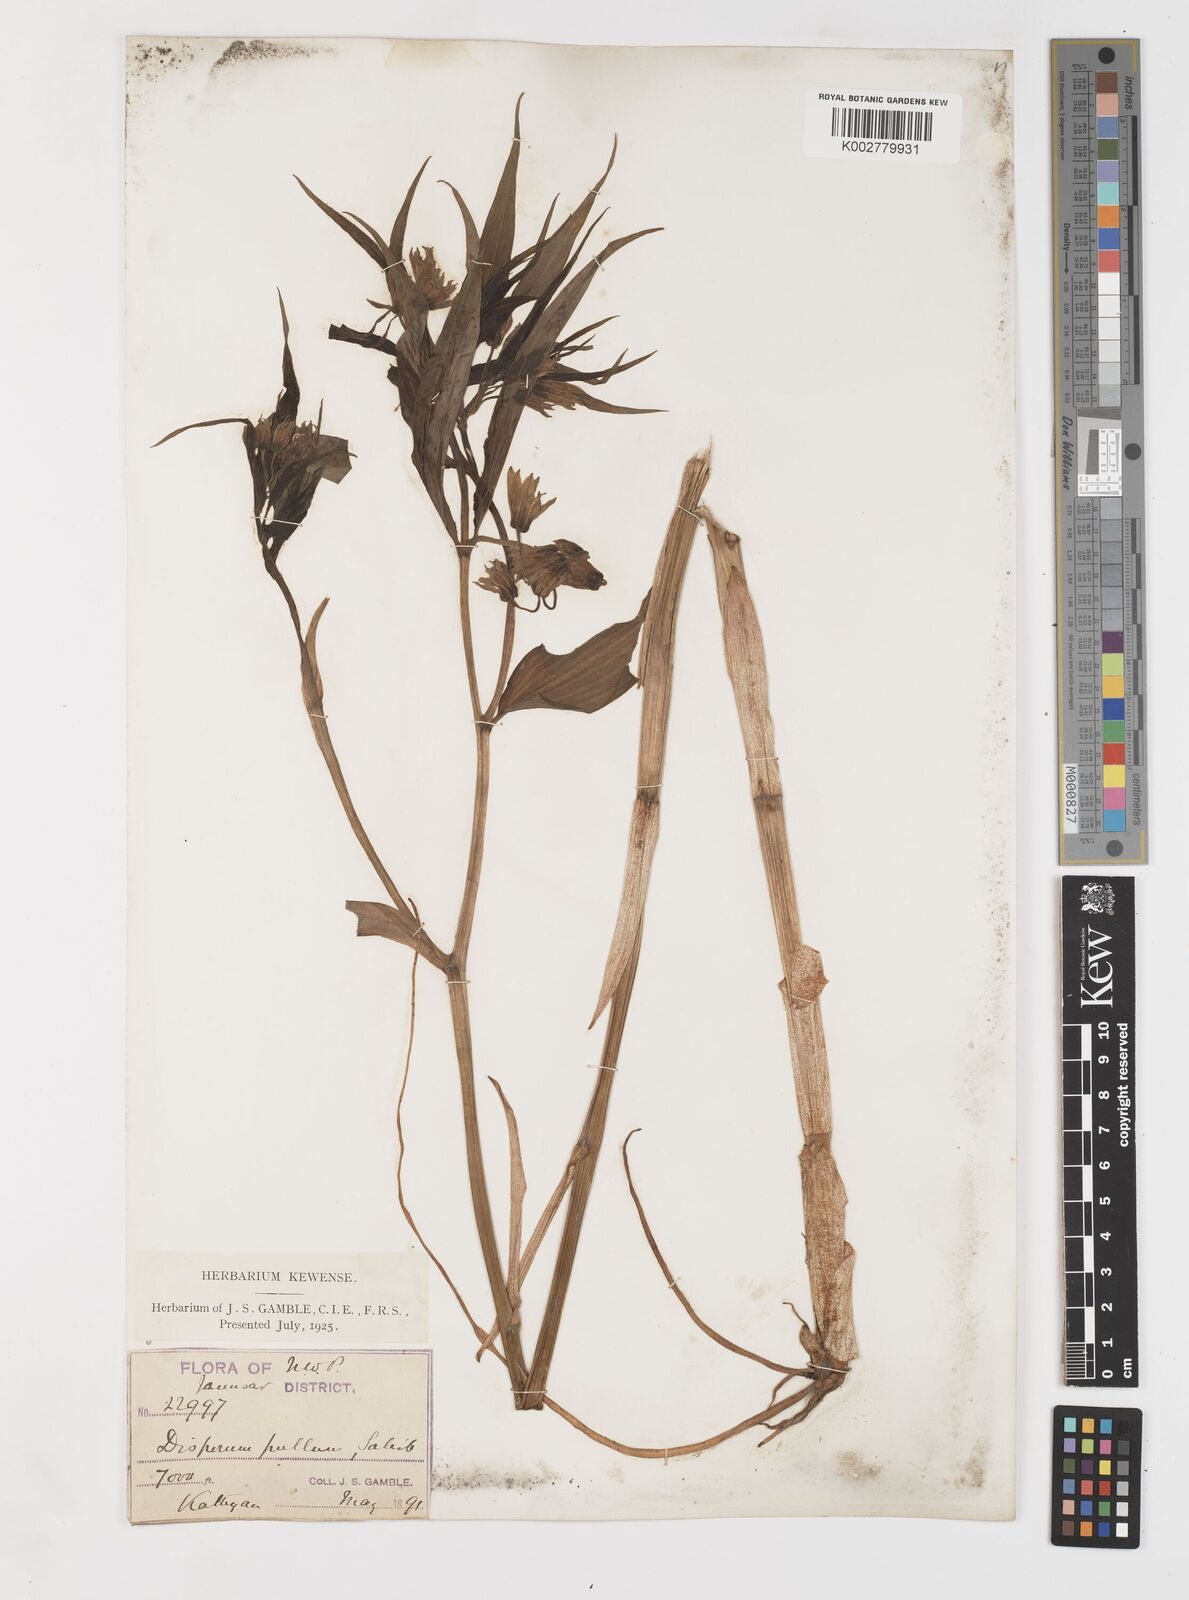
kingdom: Plantae
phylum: Tracheophyta
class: Liliopsida
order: Liliales
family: Colchicaceae
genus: Disporum
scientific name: Disporum cantoniense
